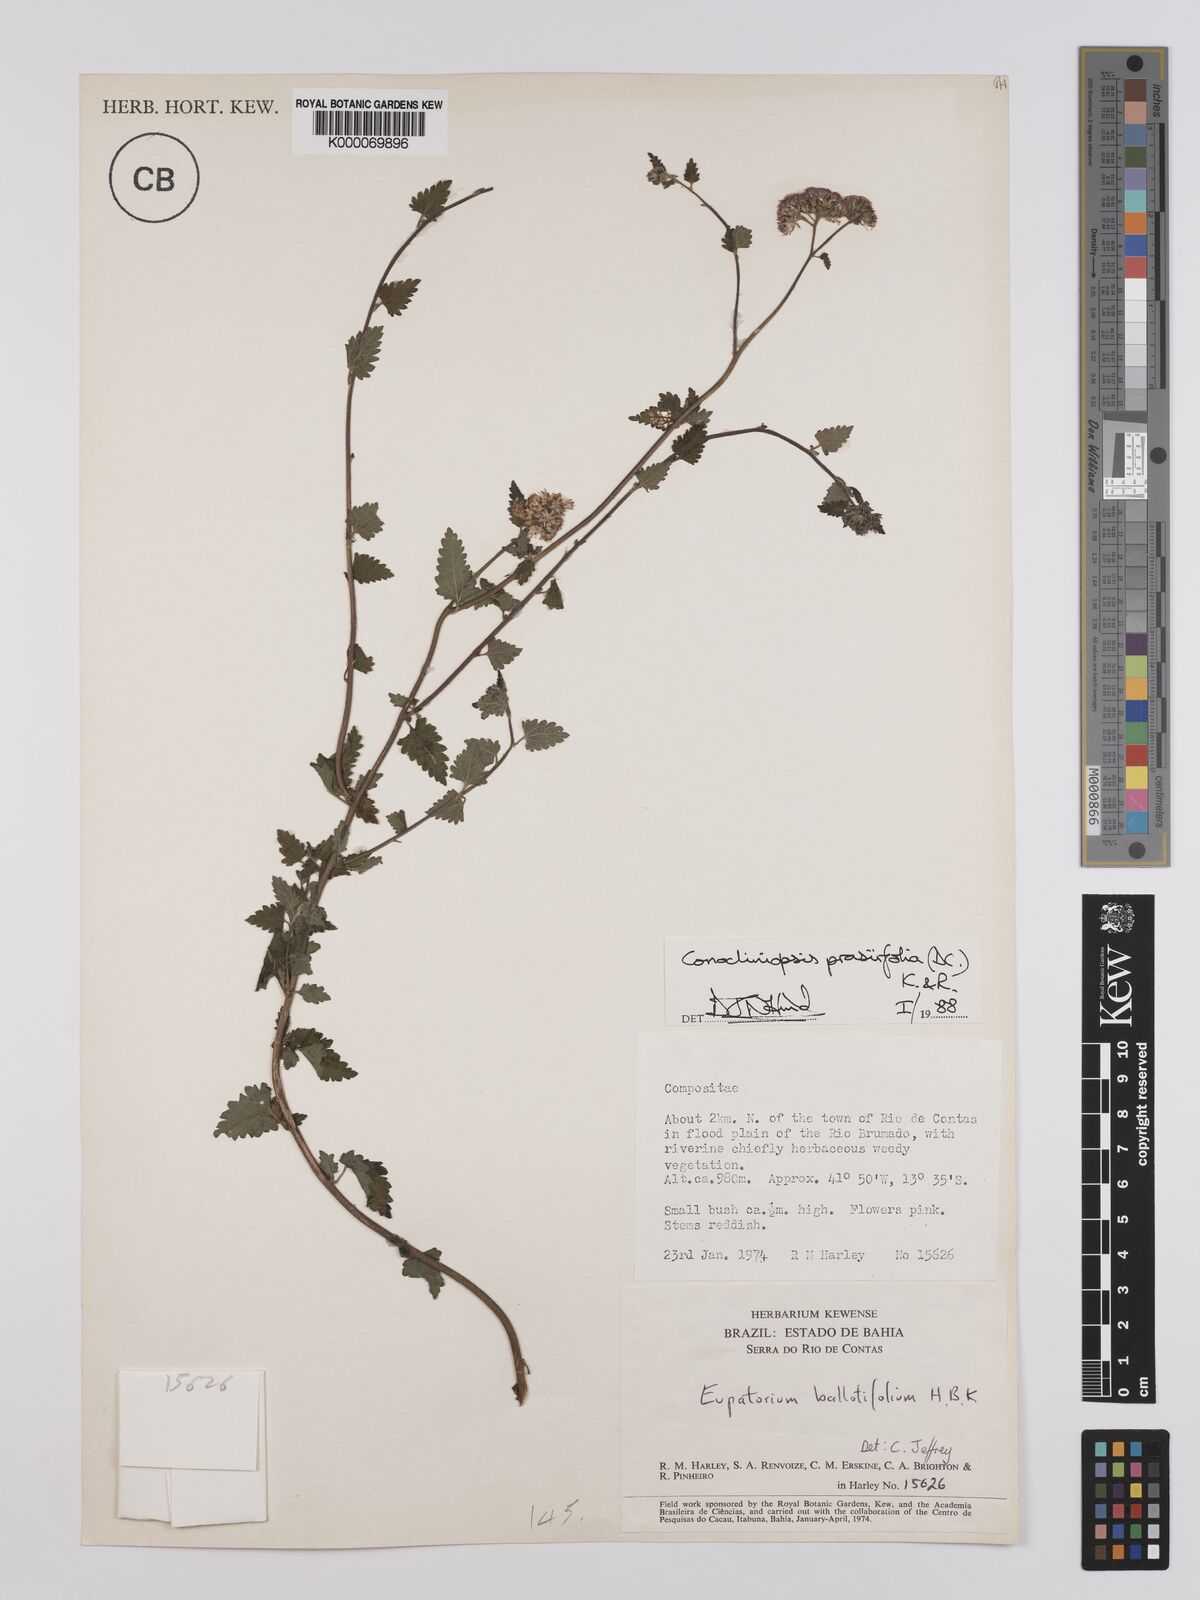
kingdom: Plantae
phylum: Tracheophyta
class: Magnoliopsida
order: Asterales
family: Asteraceae
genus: Conocliniopsis
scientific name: Conocliniopsis
